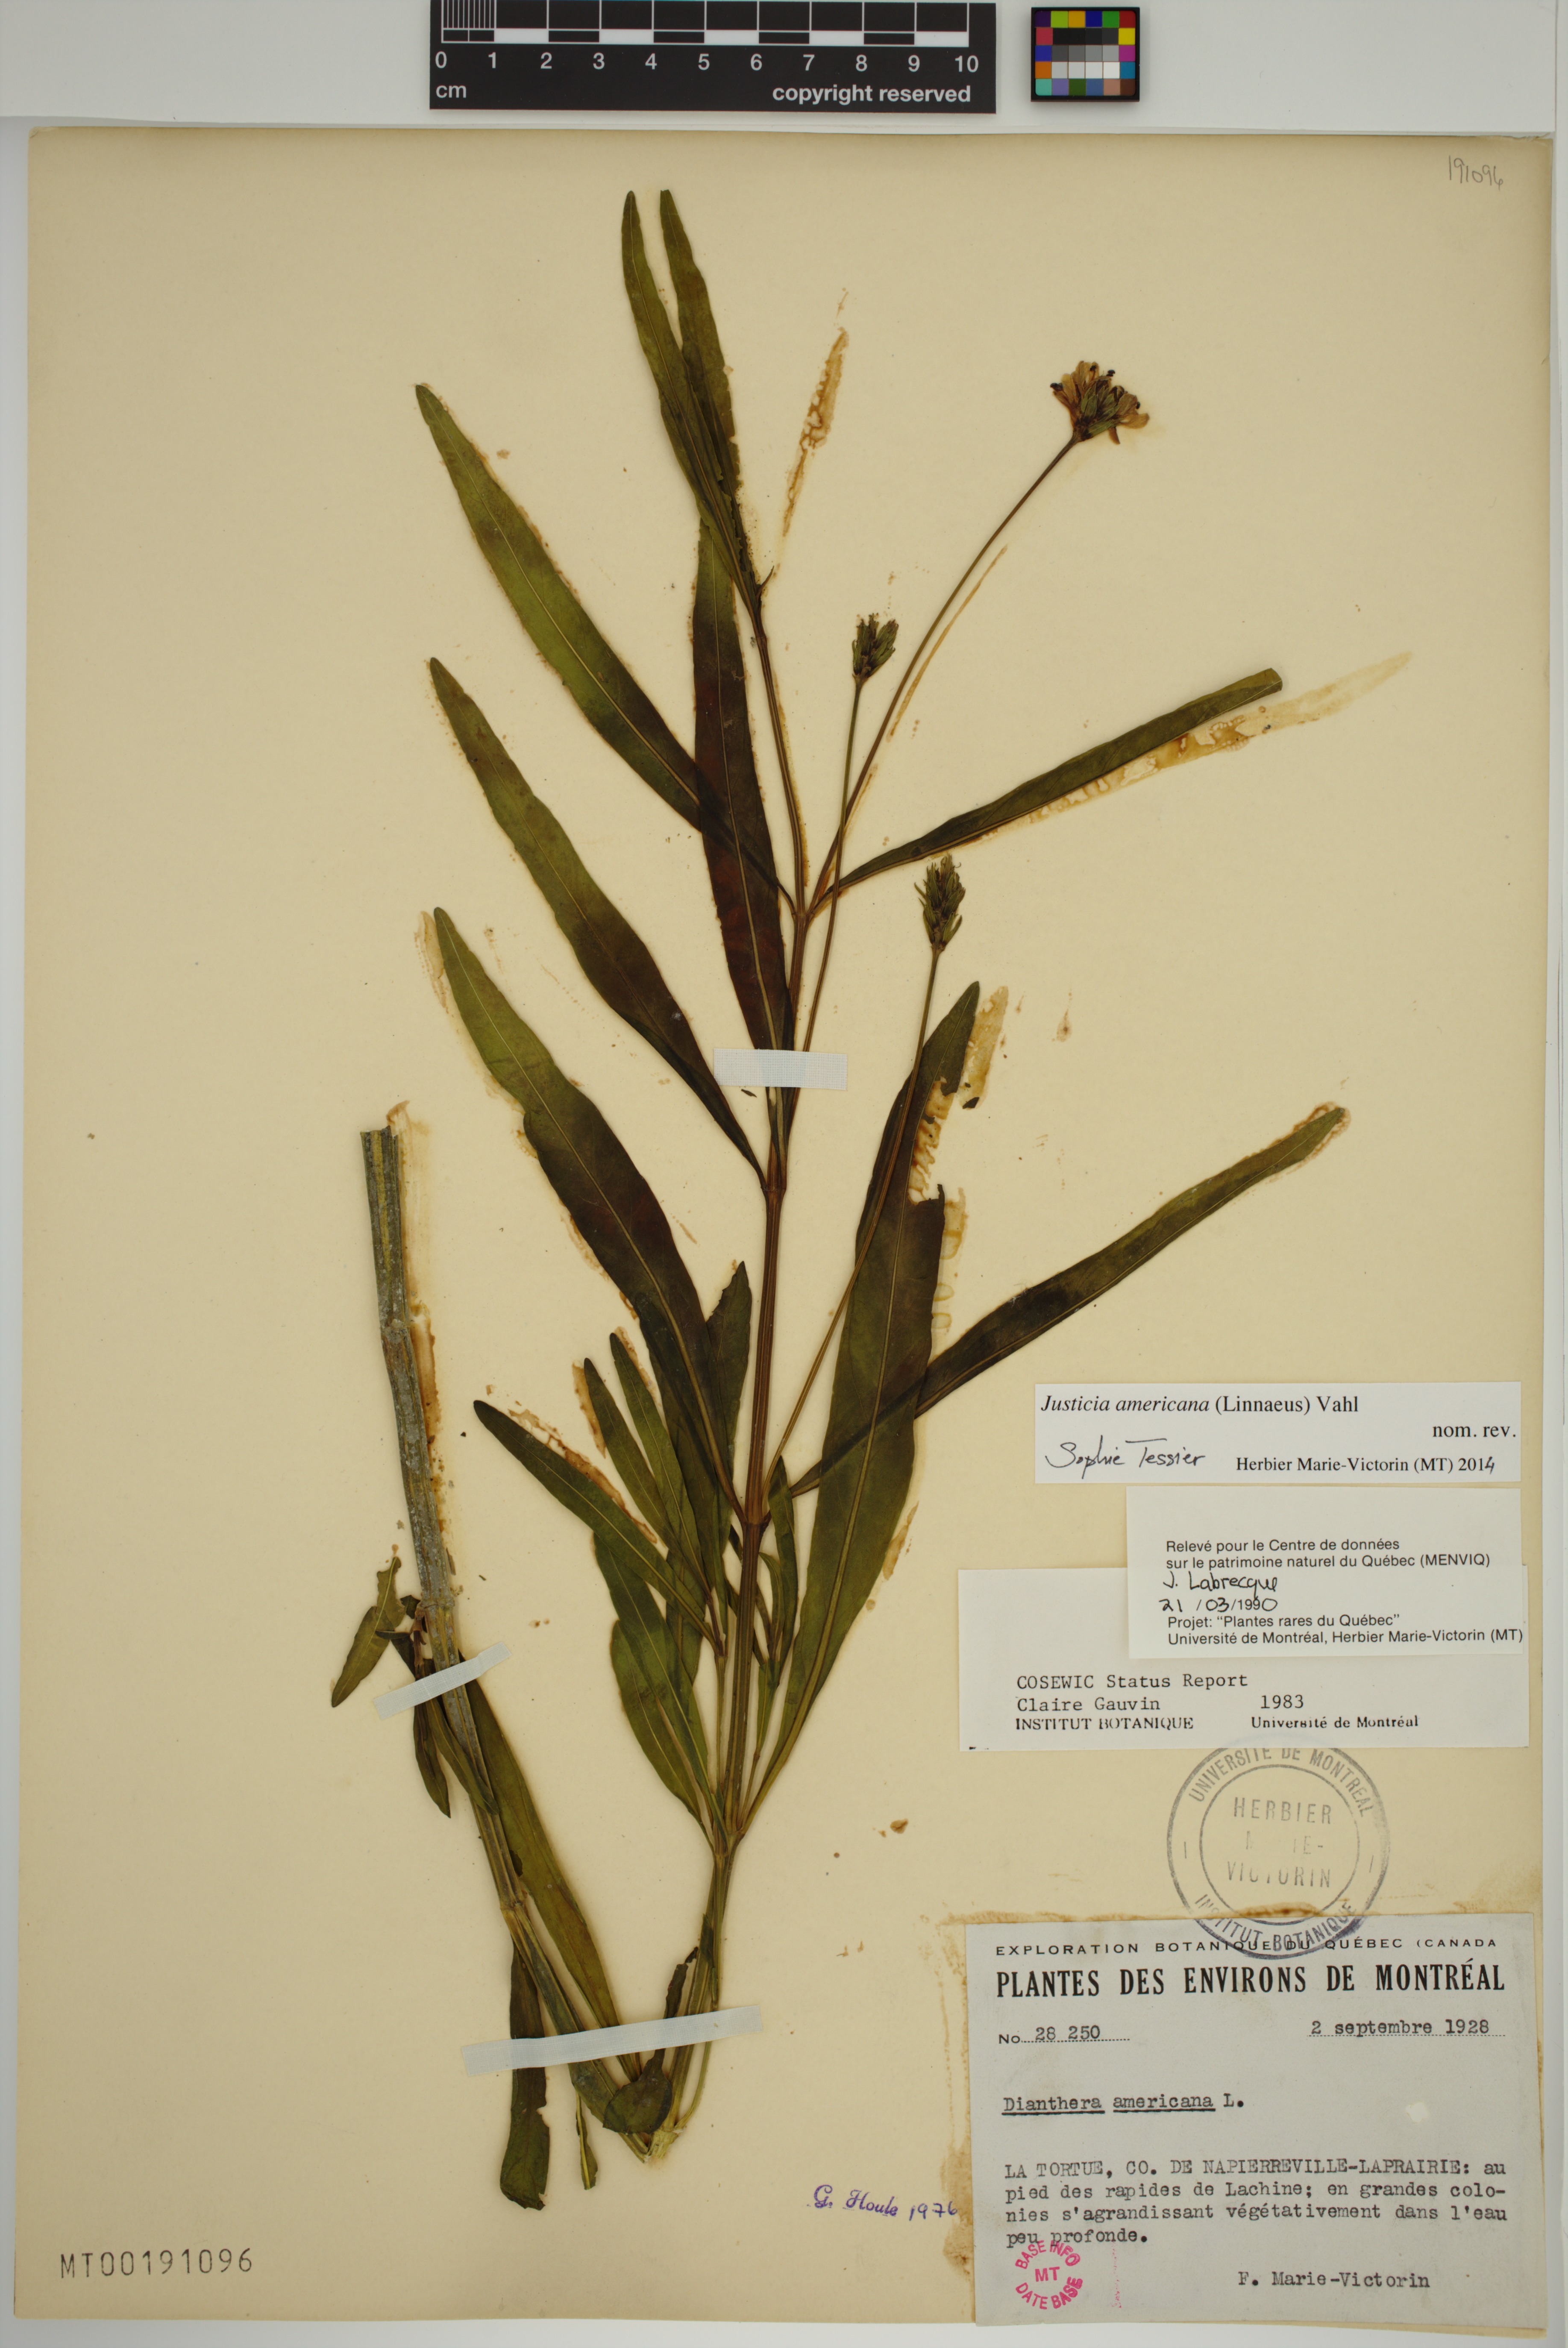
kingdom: Plantae
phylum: Tracheophyta
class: Magnoliopsida
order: Lamiales
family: Acanthaceae
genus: Dianthera
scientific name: Dianthera americana
